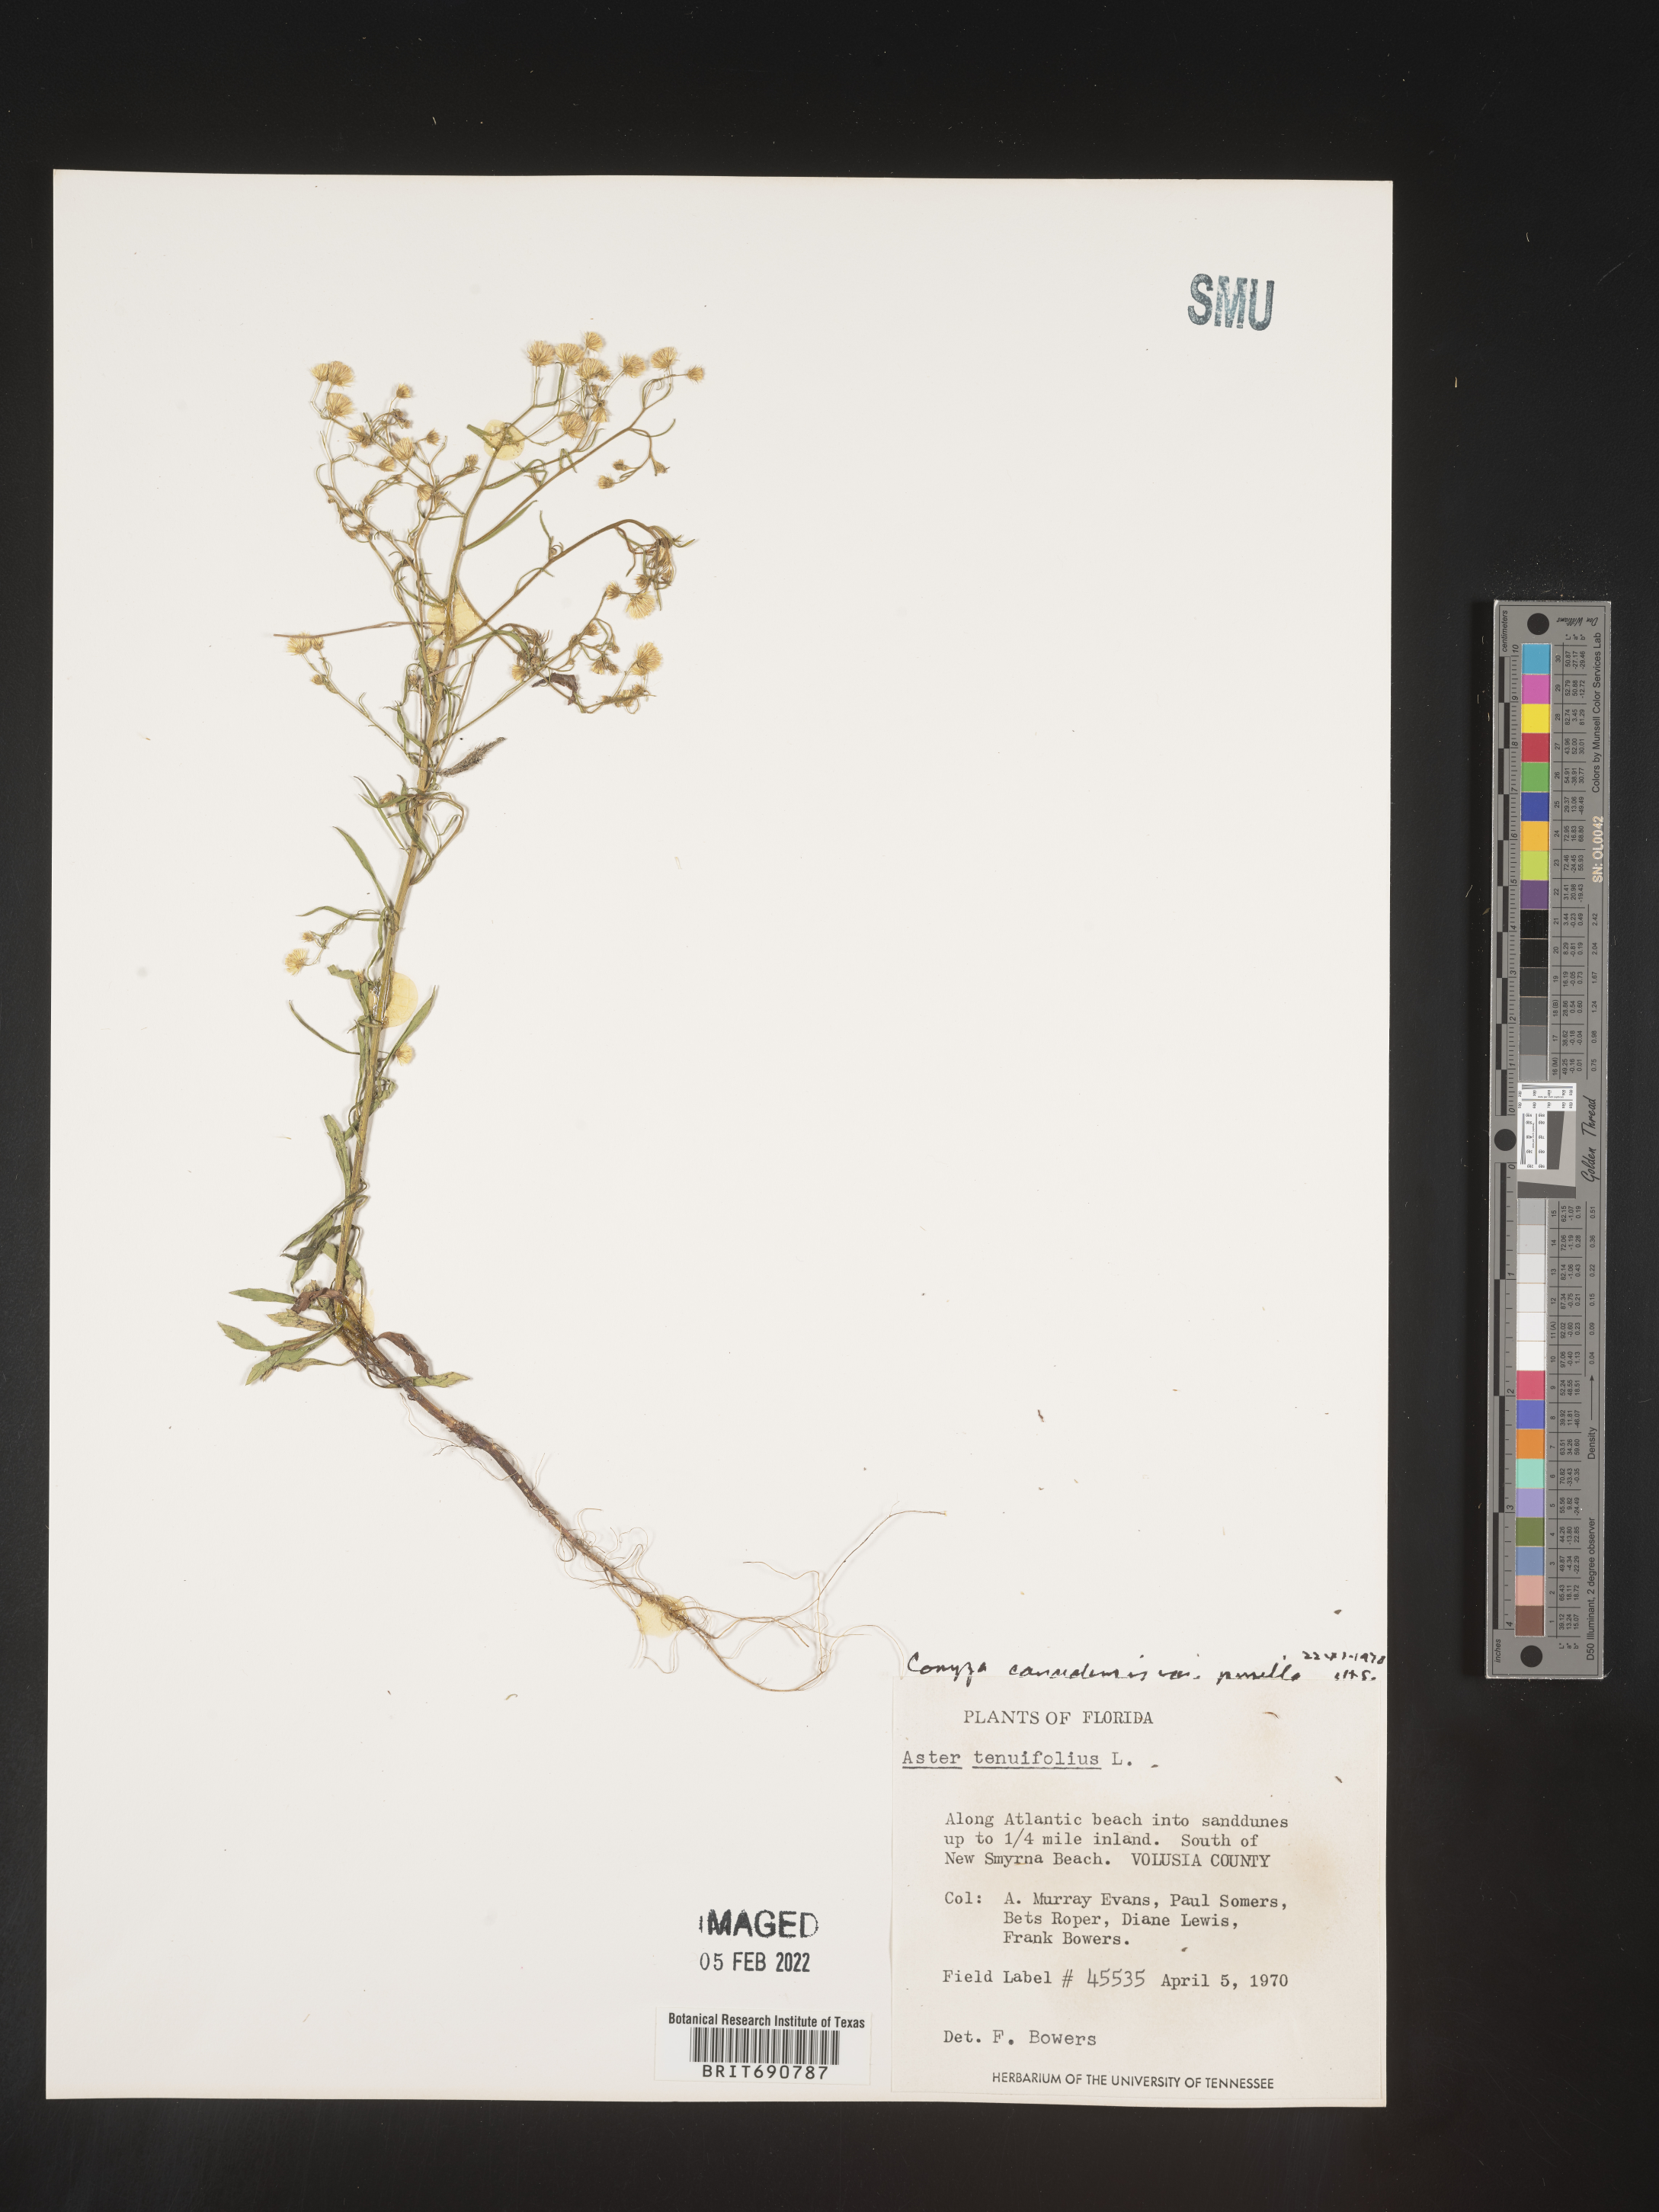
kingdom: Plantae
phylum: Tracheophyta
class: Magnoliopsida
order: Asterales
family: Asteraceae
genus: Erigeron
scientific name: Erigeron canadensis
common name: Canadian fleabane
